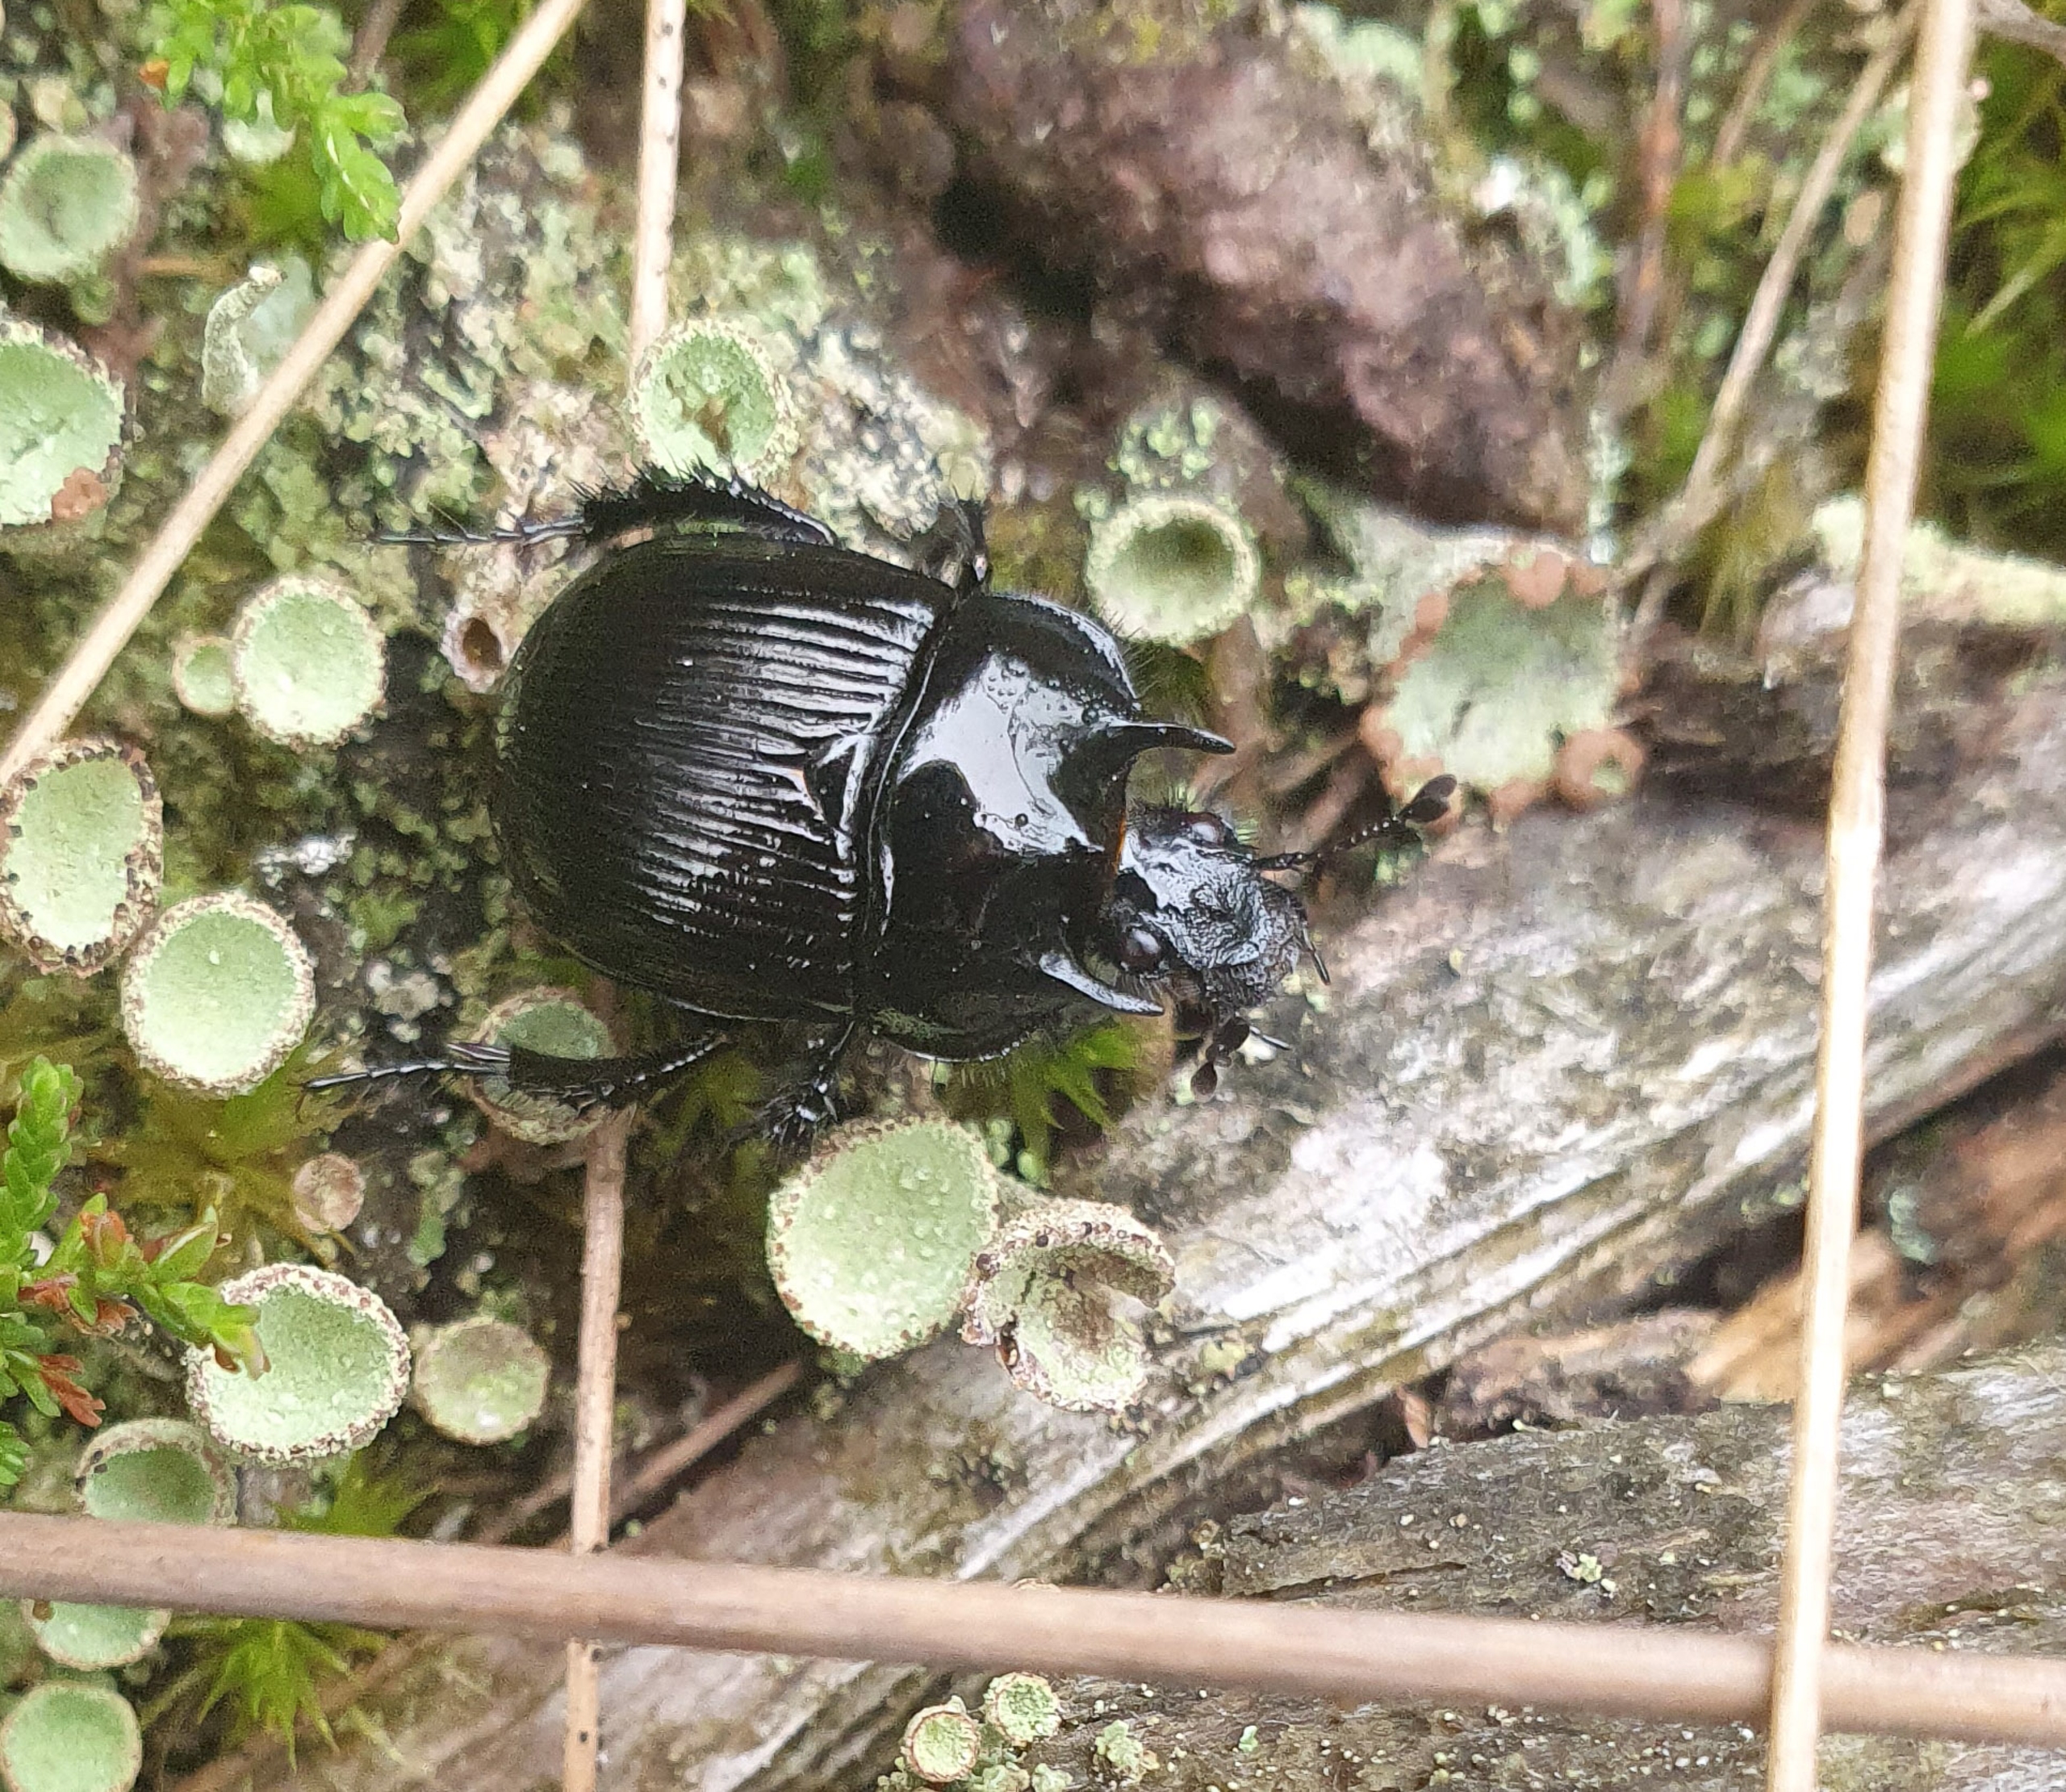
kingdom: Animalia
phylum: Arthropoda
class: Insecta
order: Coleoptera
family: Geotrupidae
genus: Typhaeus
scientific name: Typhaeus typhoeus
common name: Trehornet skarnbasse
